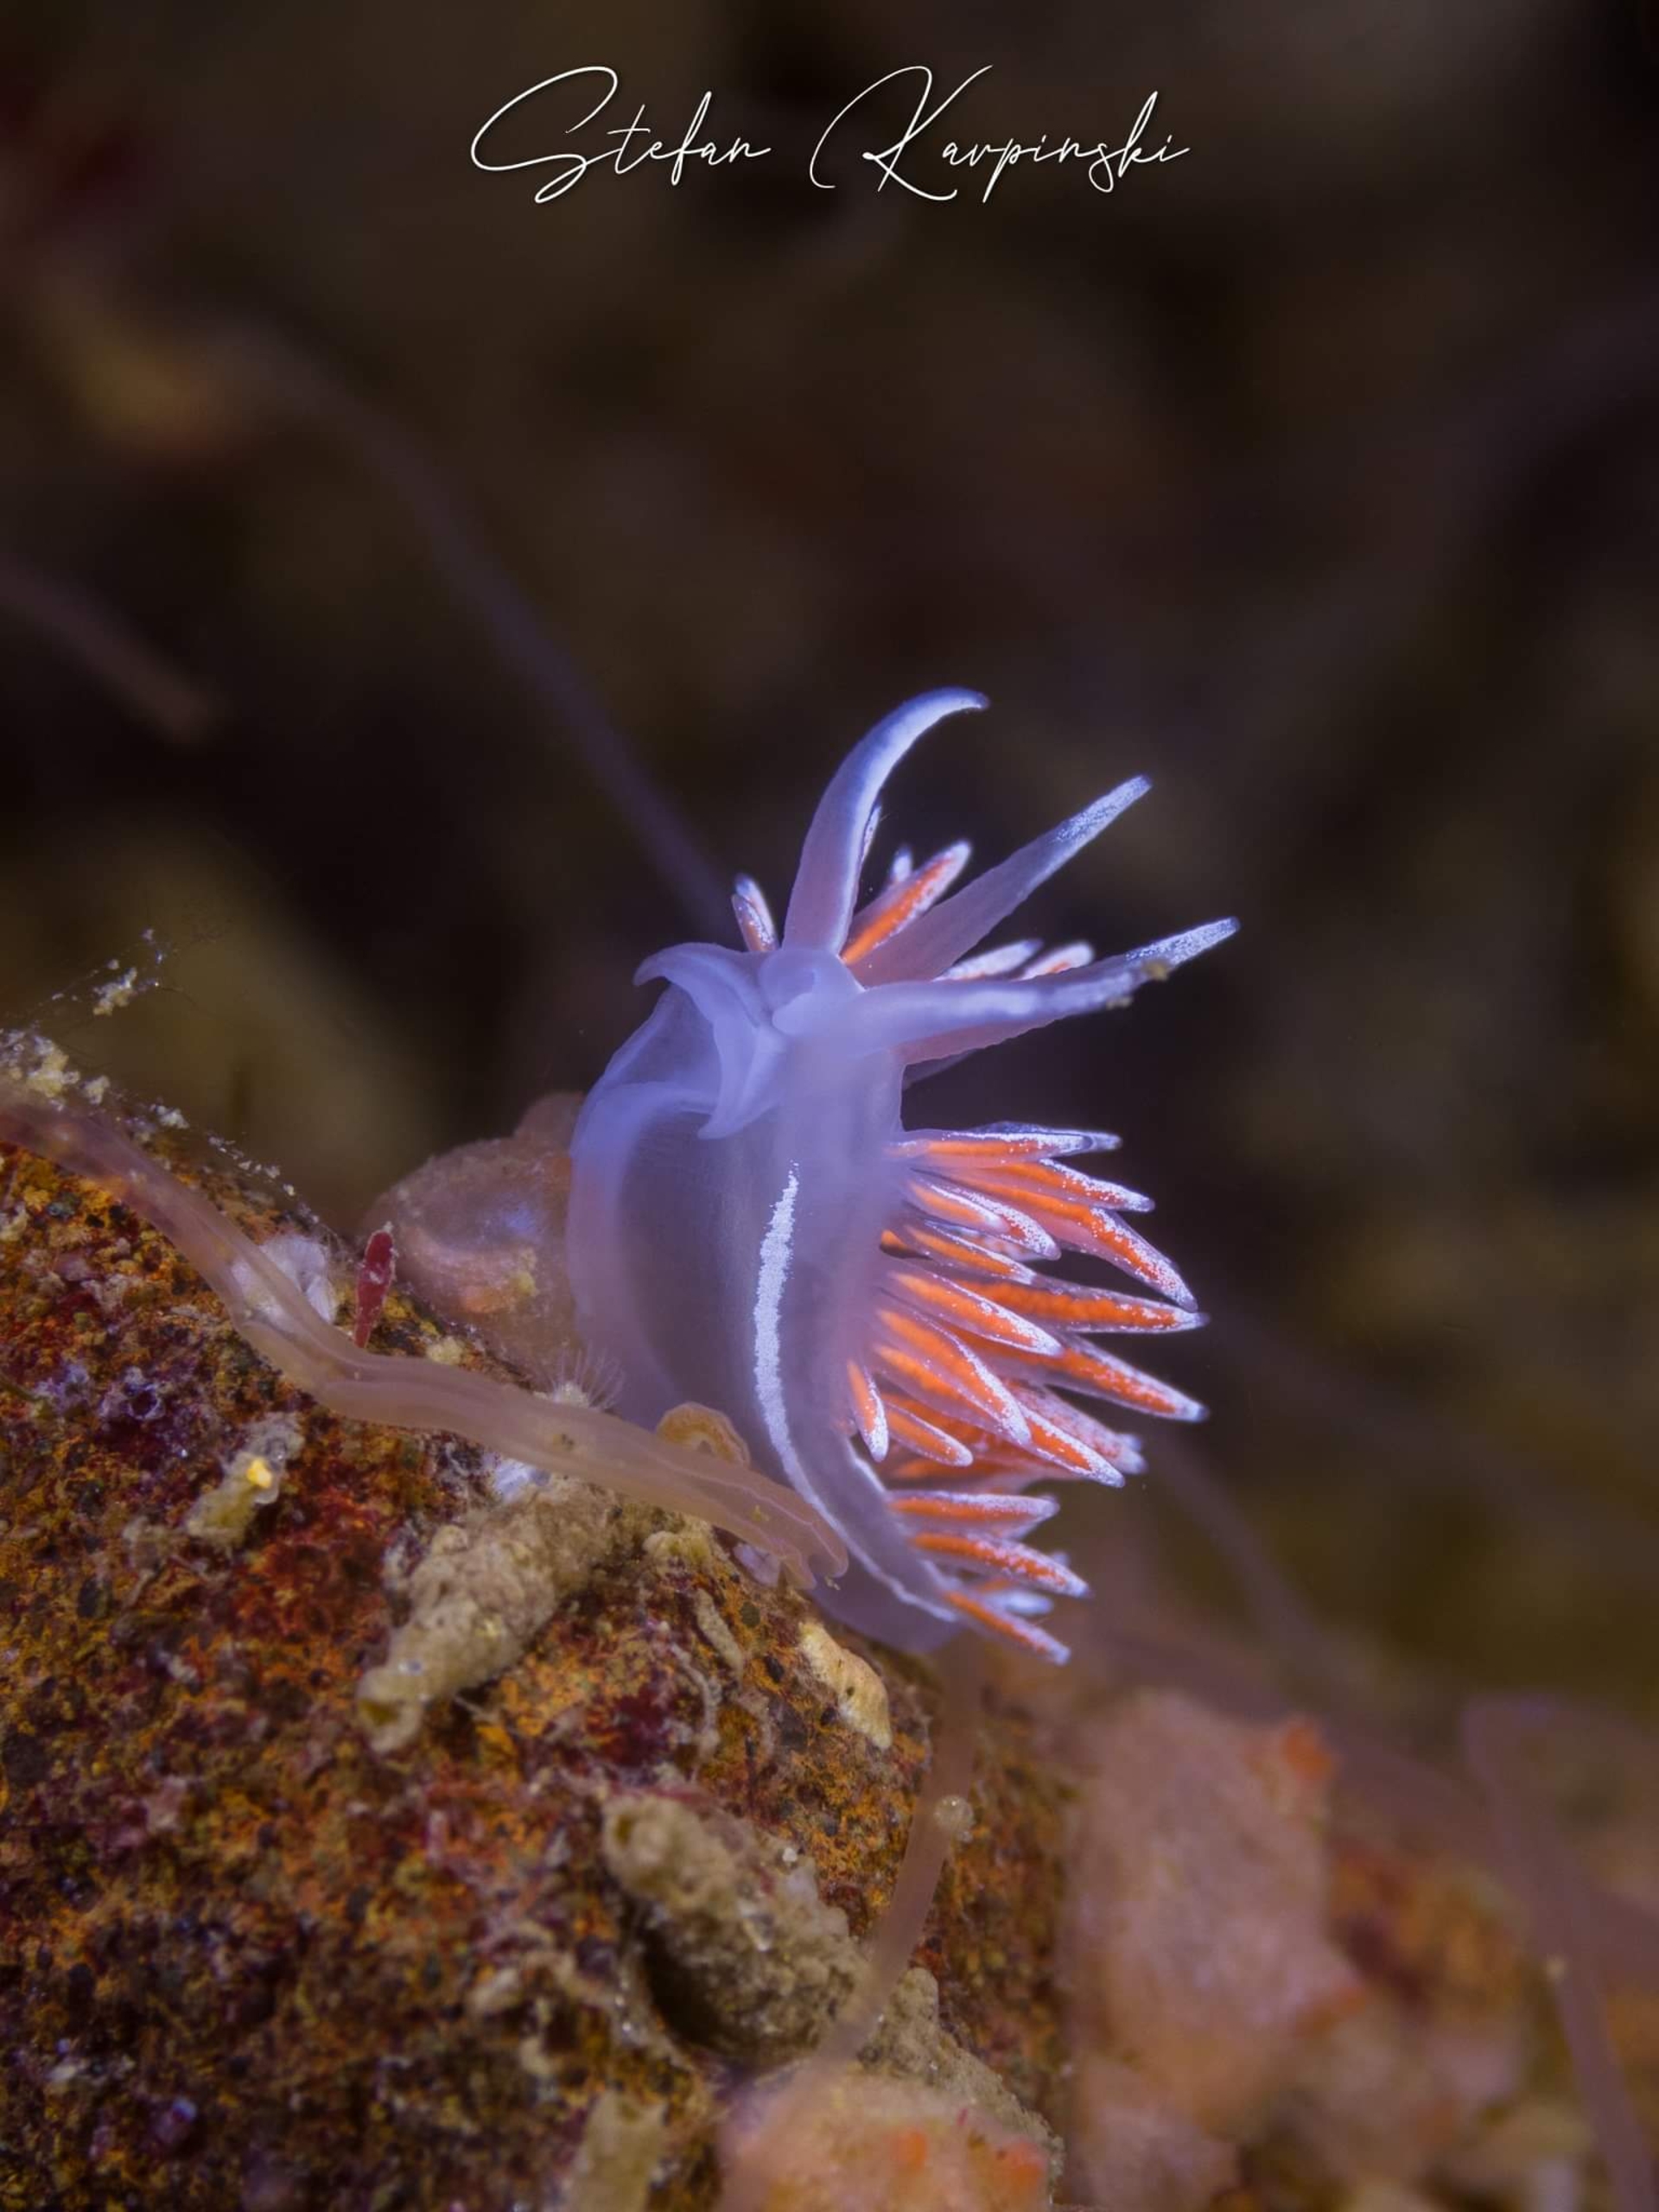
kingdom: Animalia
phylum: Mollusca
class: Gastropoda
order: Nudibranchia
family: Coryphellidae
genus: Coryphella
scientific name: Coryphella lineata
